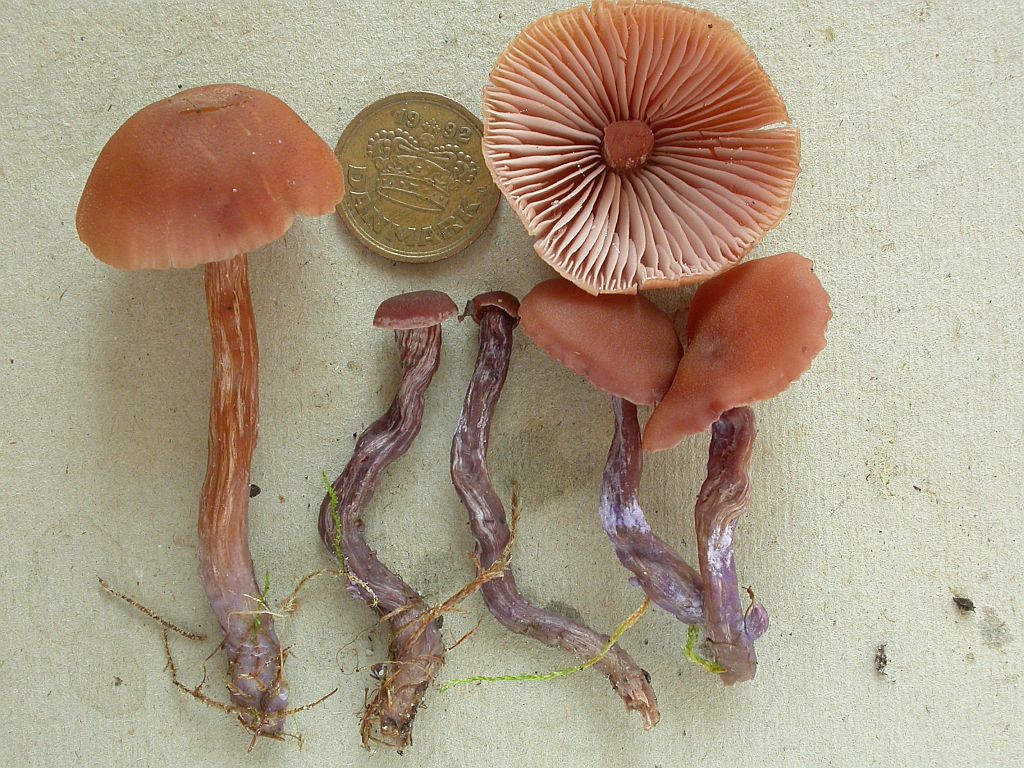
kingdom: Fungi
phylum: Basidiomycota
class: Agaricomycetes
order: Agaricales
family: Hydnangiaceae
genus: Laccaria
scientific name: Laccaria bicolor
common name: tvefarvet ametysthat
